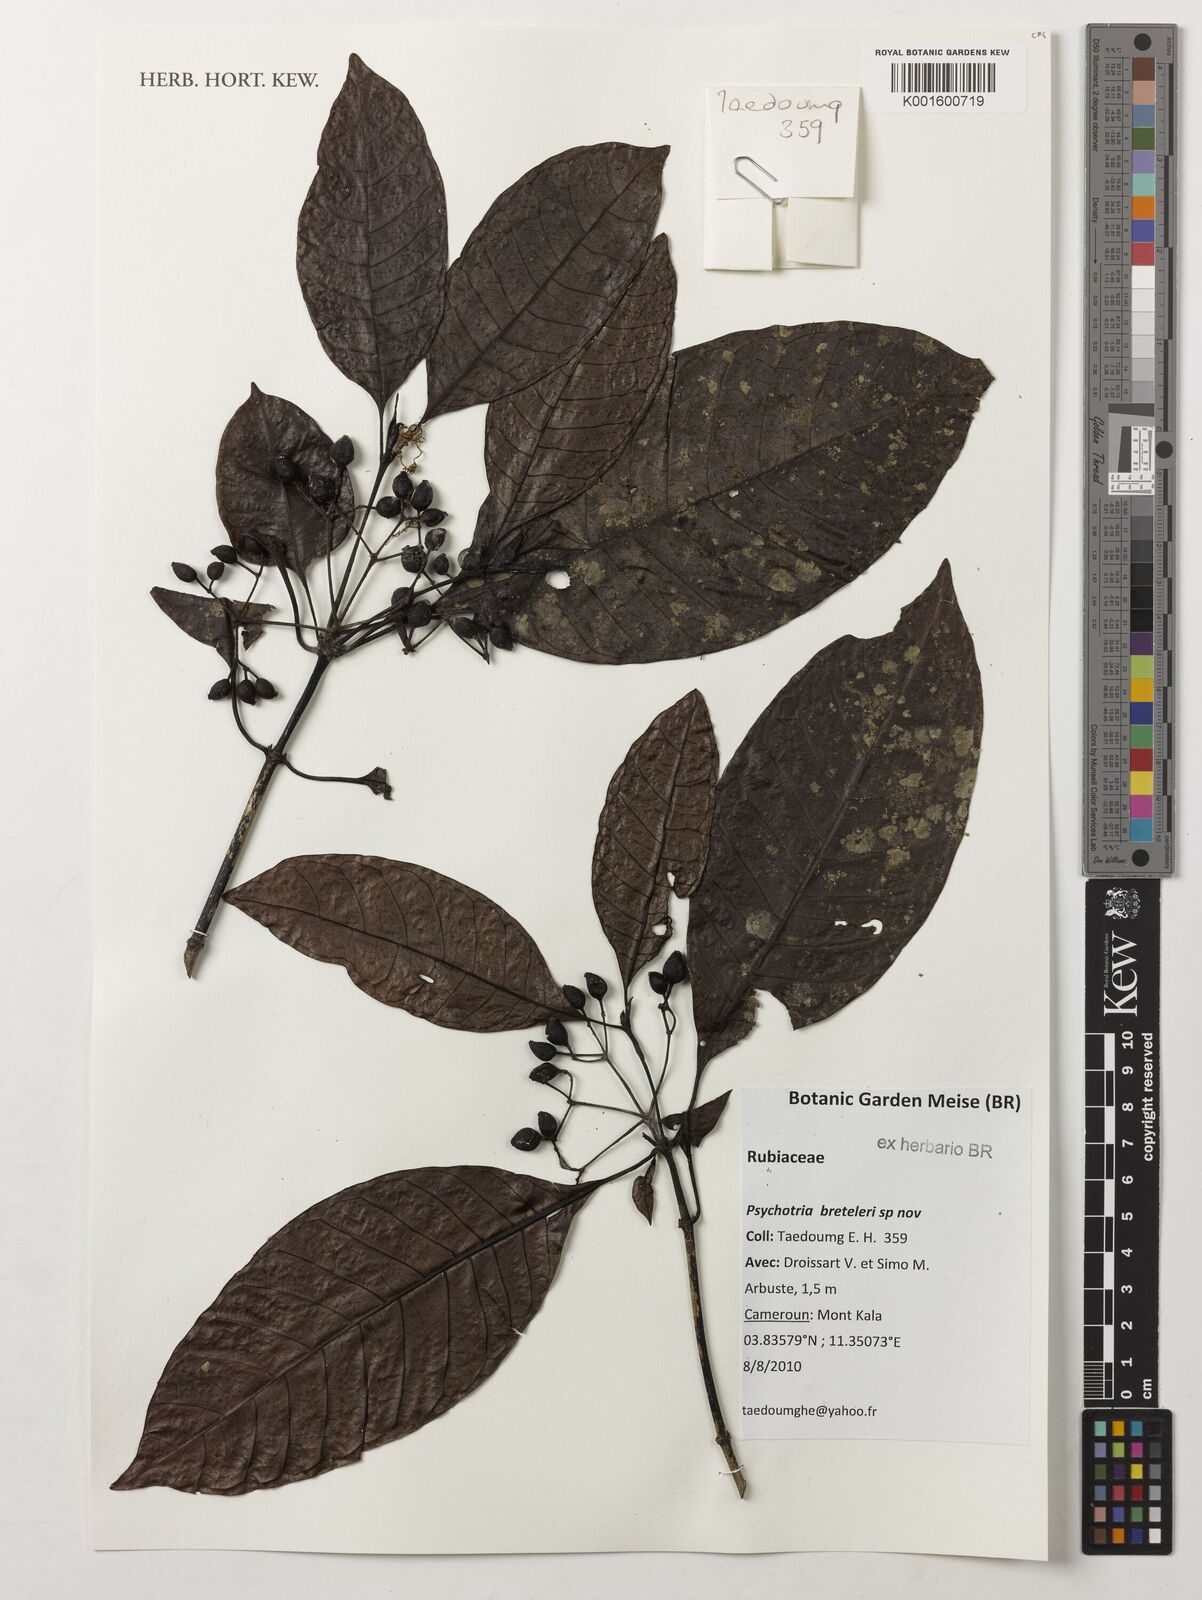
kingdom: Plantae
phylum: Tracheophyta
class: Magnoliopsida
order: Gentianales
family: Rubiaceae
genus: Psychotria
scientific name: Psychotria breteleri
